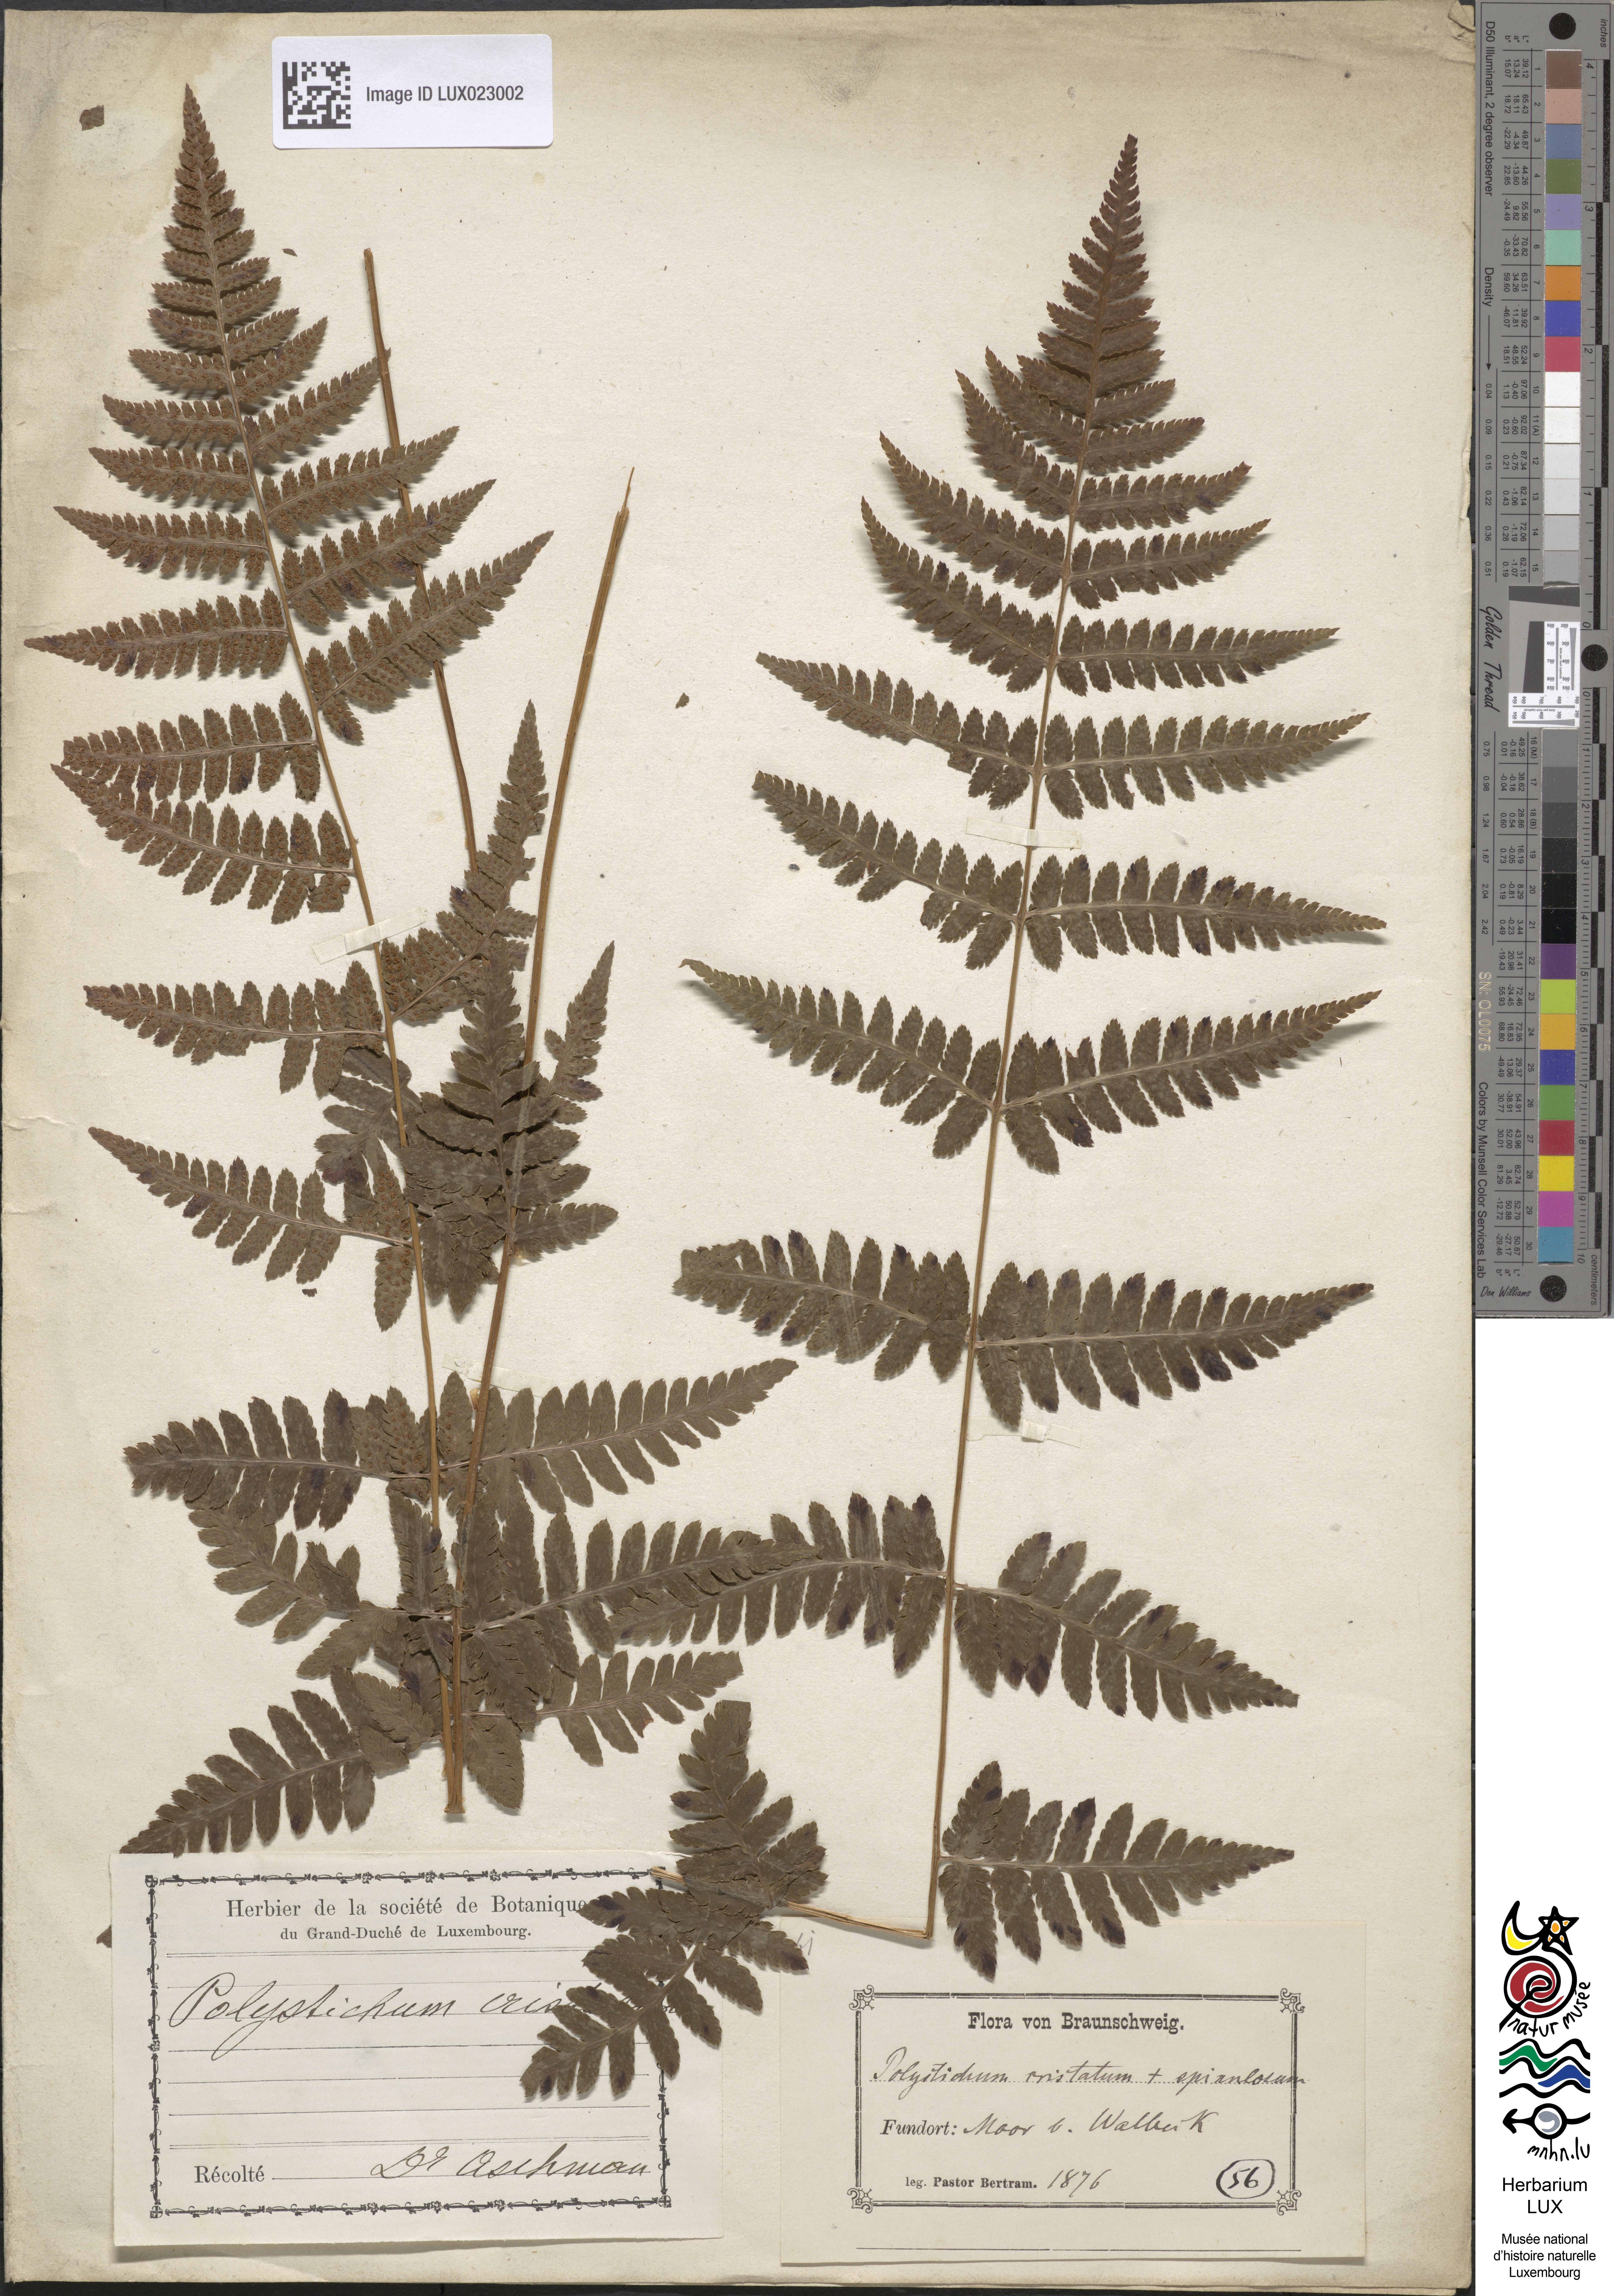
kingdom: Plantae
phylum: Tracheophyta
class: Polypodiopsida
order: Polypodiales
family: Dryopteridaceae
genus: Dryopteris
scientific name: Dryopteris cristata
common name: Crested wood fern
